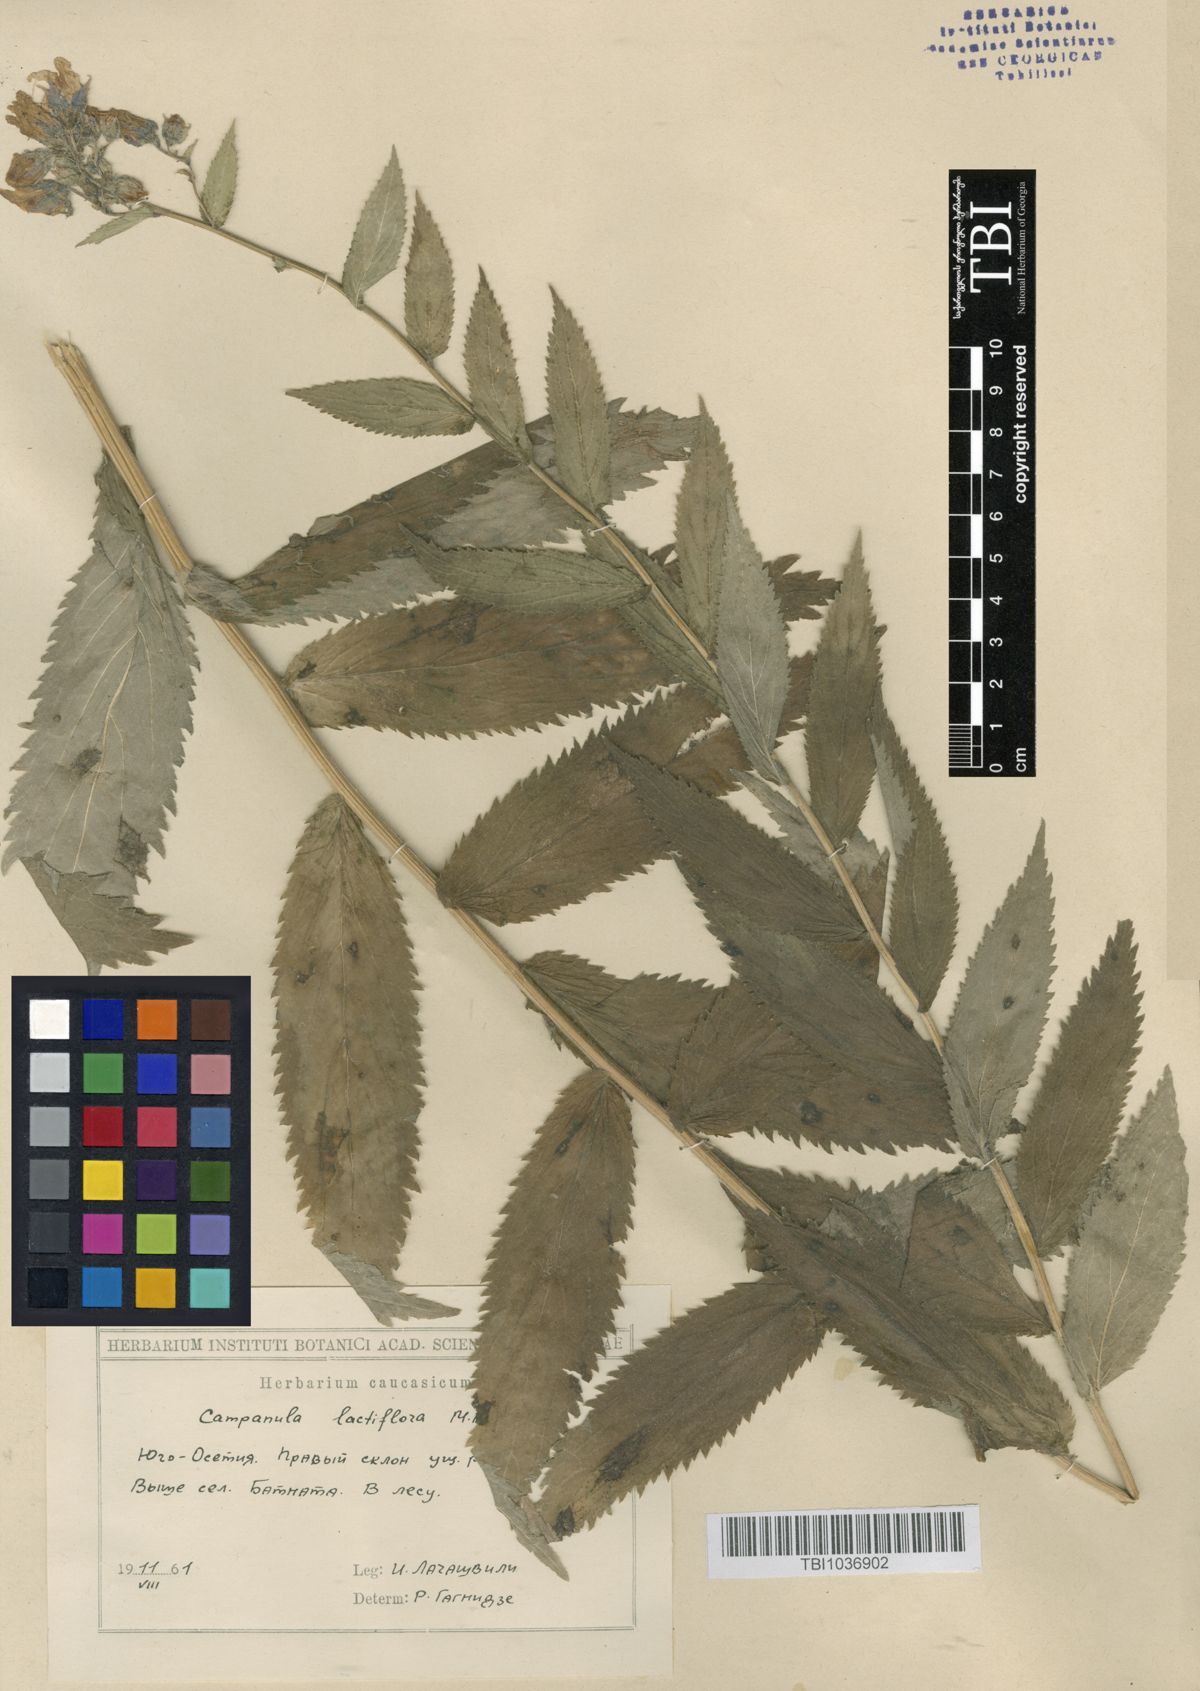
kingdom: Plantae
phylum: Tracheophyta
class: Magnoliopsida
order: Asterales
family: Campanulaceae
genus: Campanula
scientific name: Campanula lactiflora
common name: Milky bellflower
